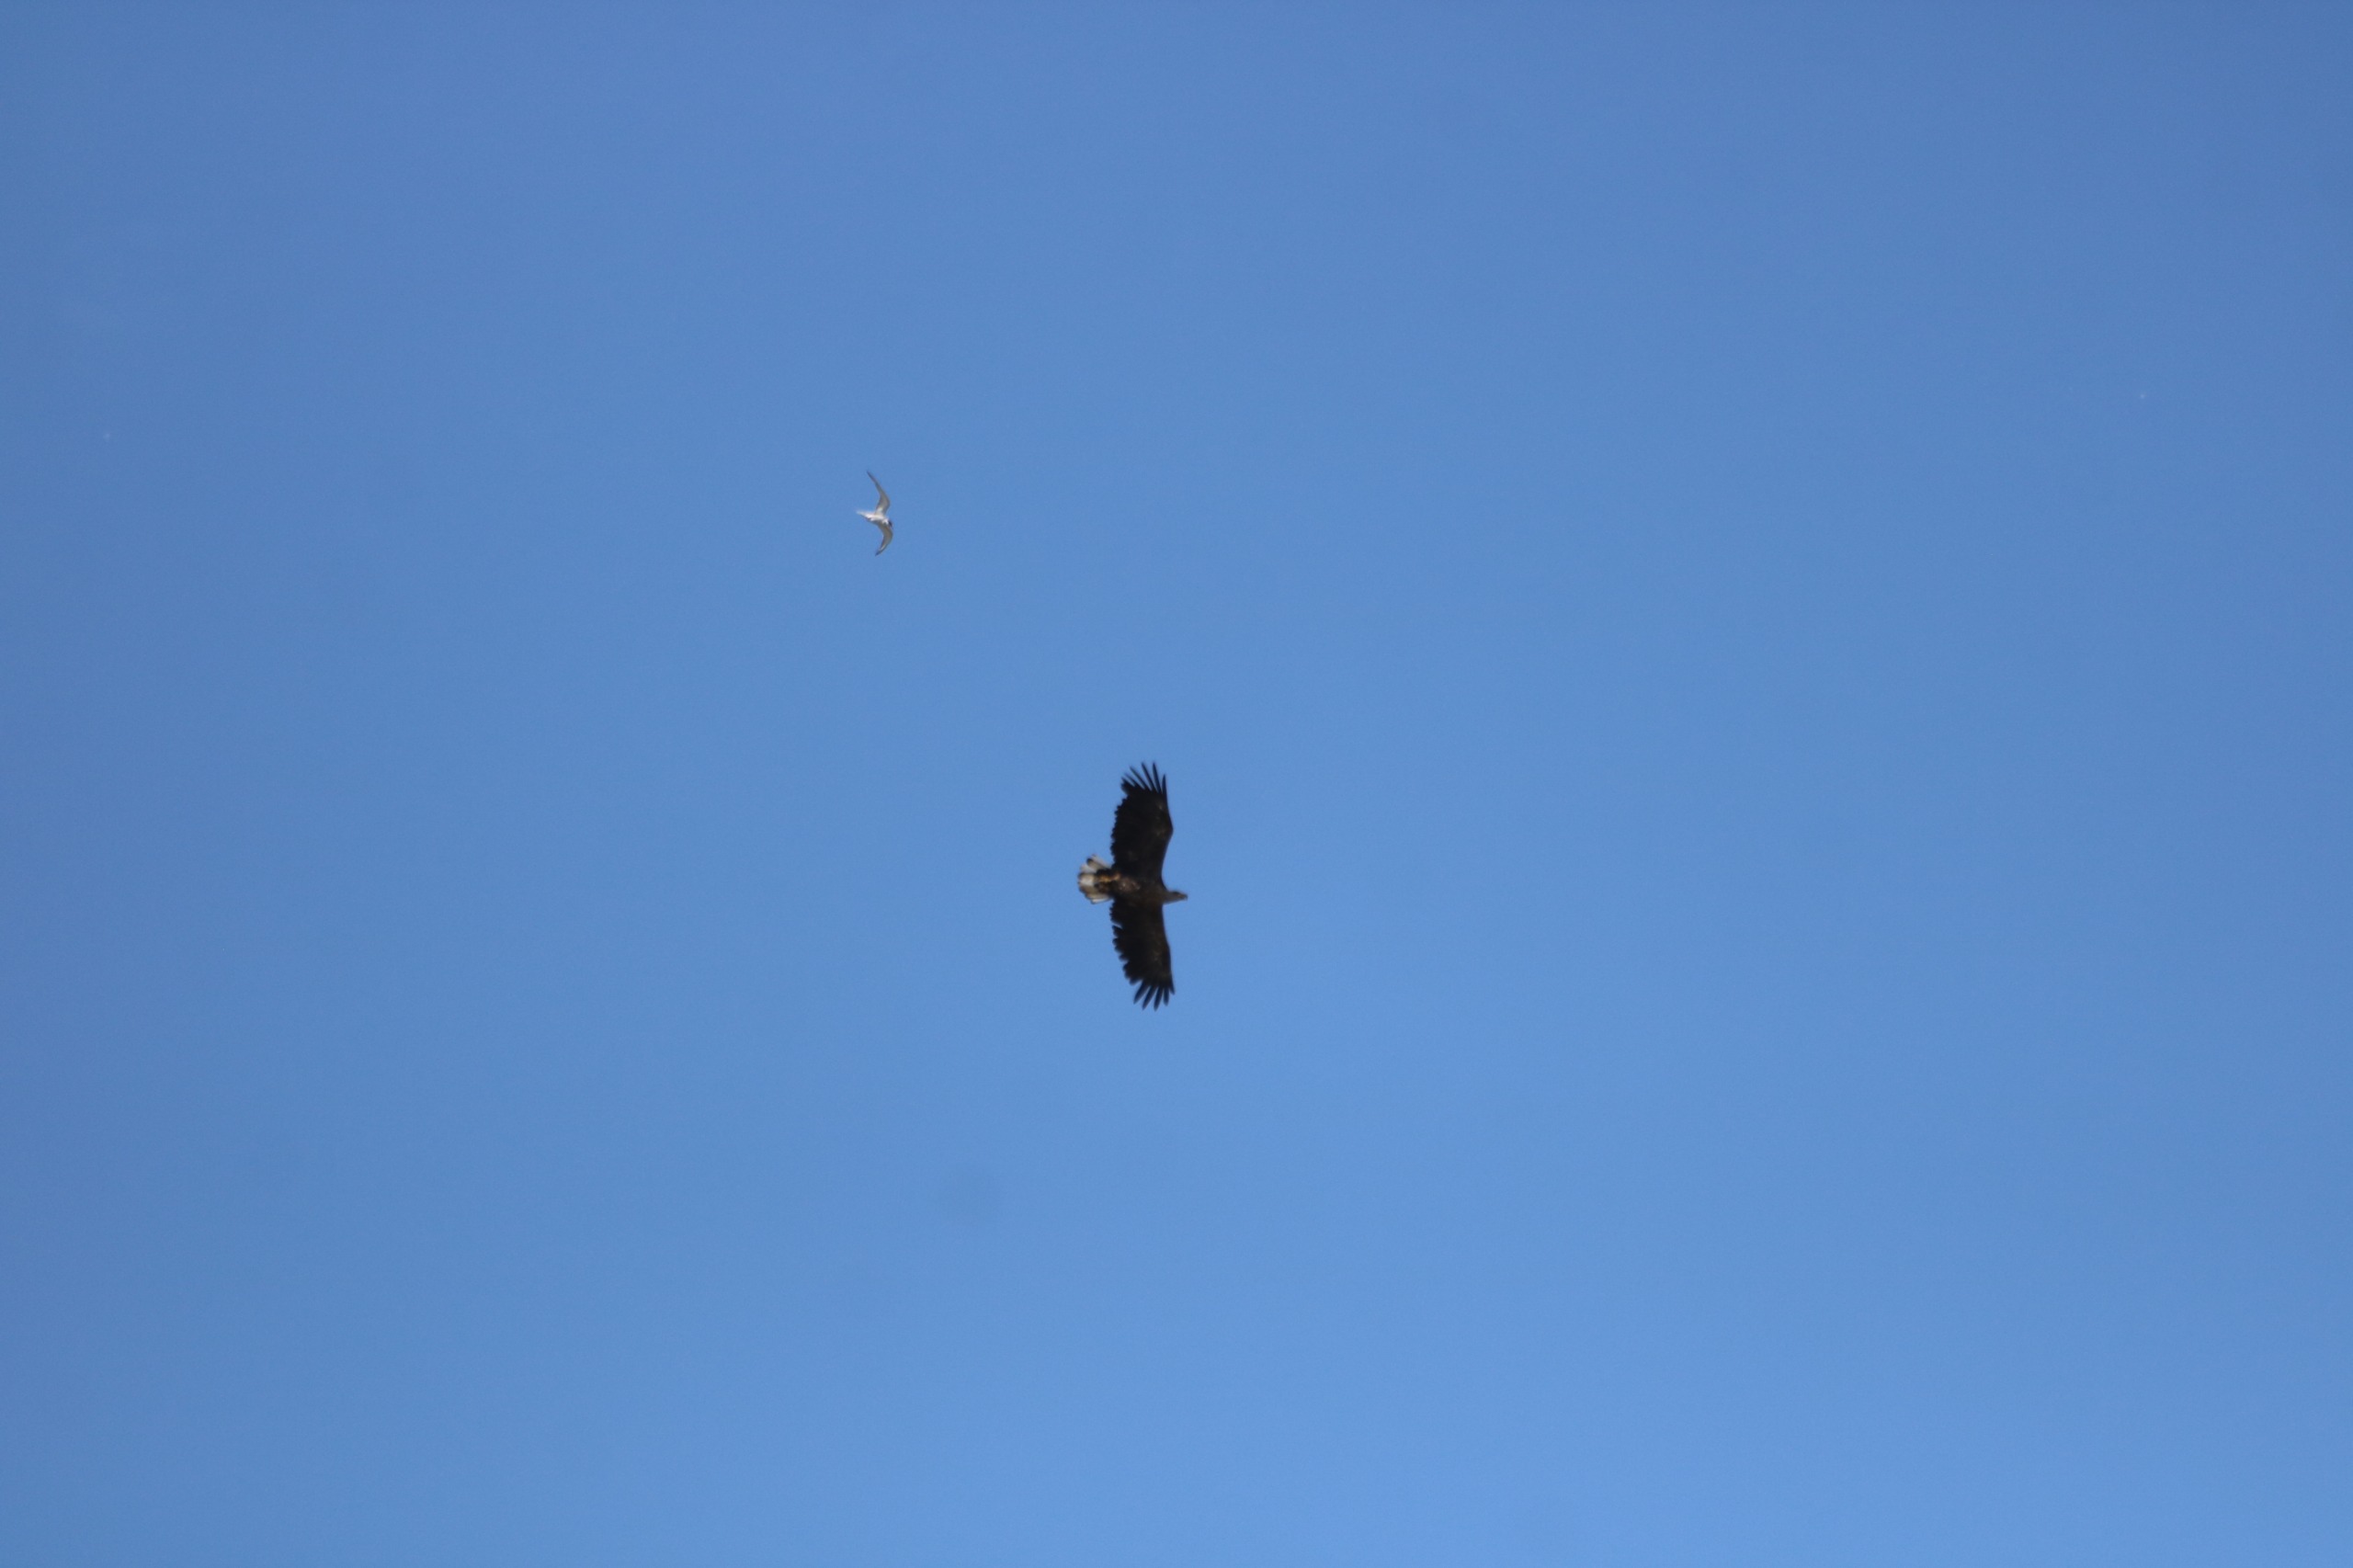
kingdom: Animalia
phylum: Chordata
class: Aves
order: Accipitriformes
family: Accipitridae
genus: Haliaeetus
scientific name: Haliaeetus albicilla
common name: Havørn
